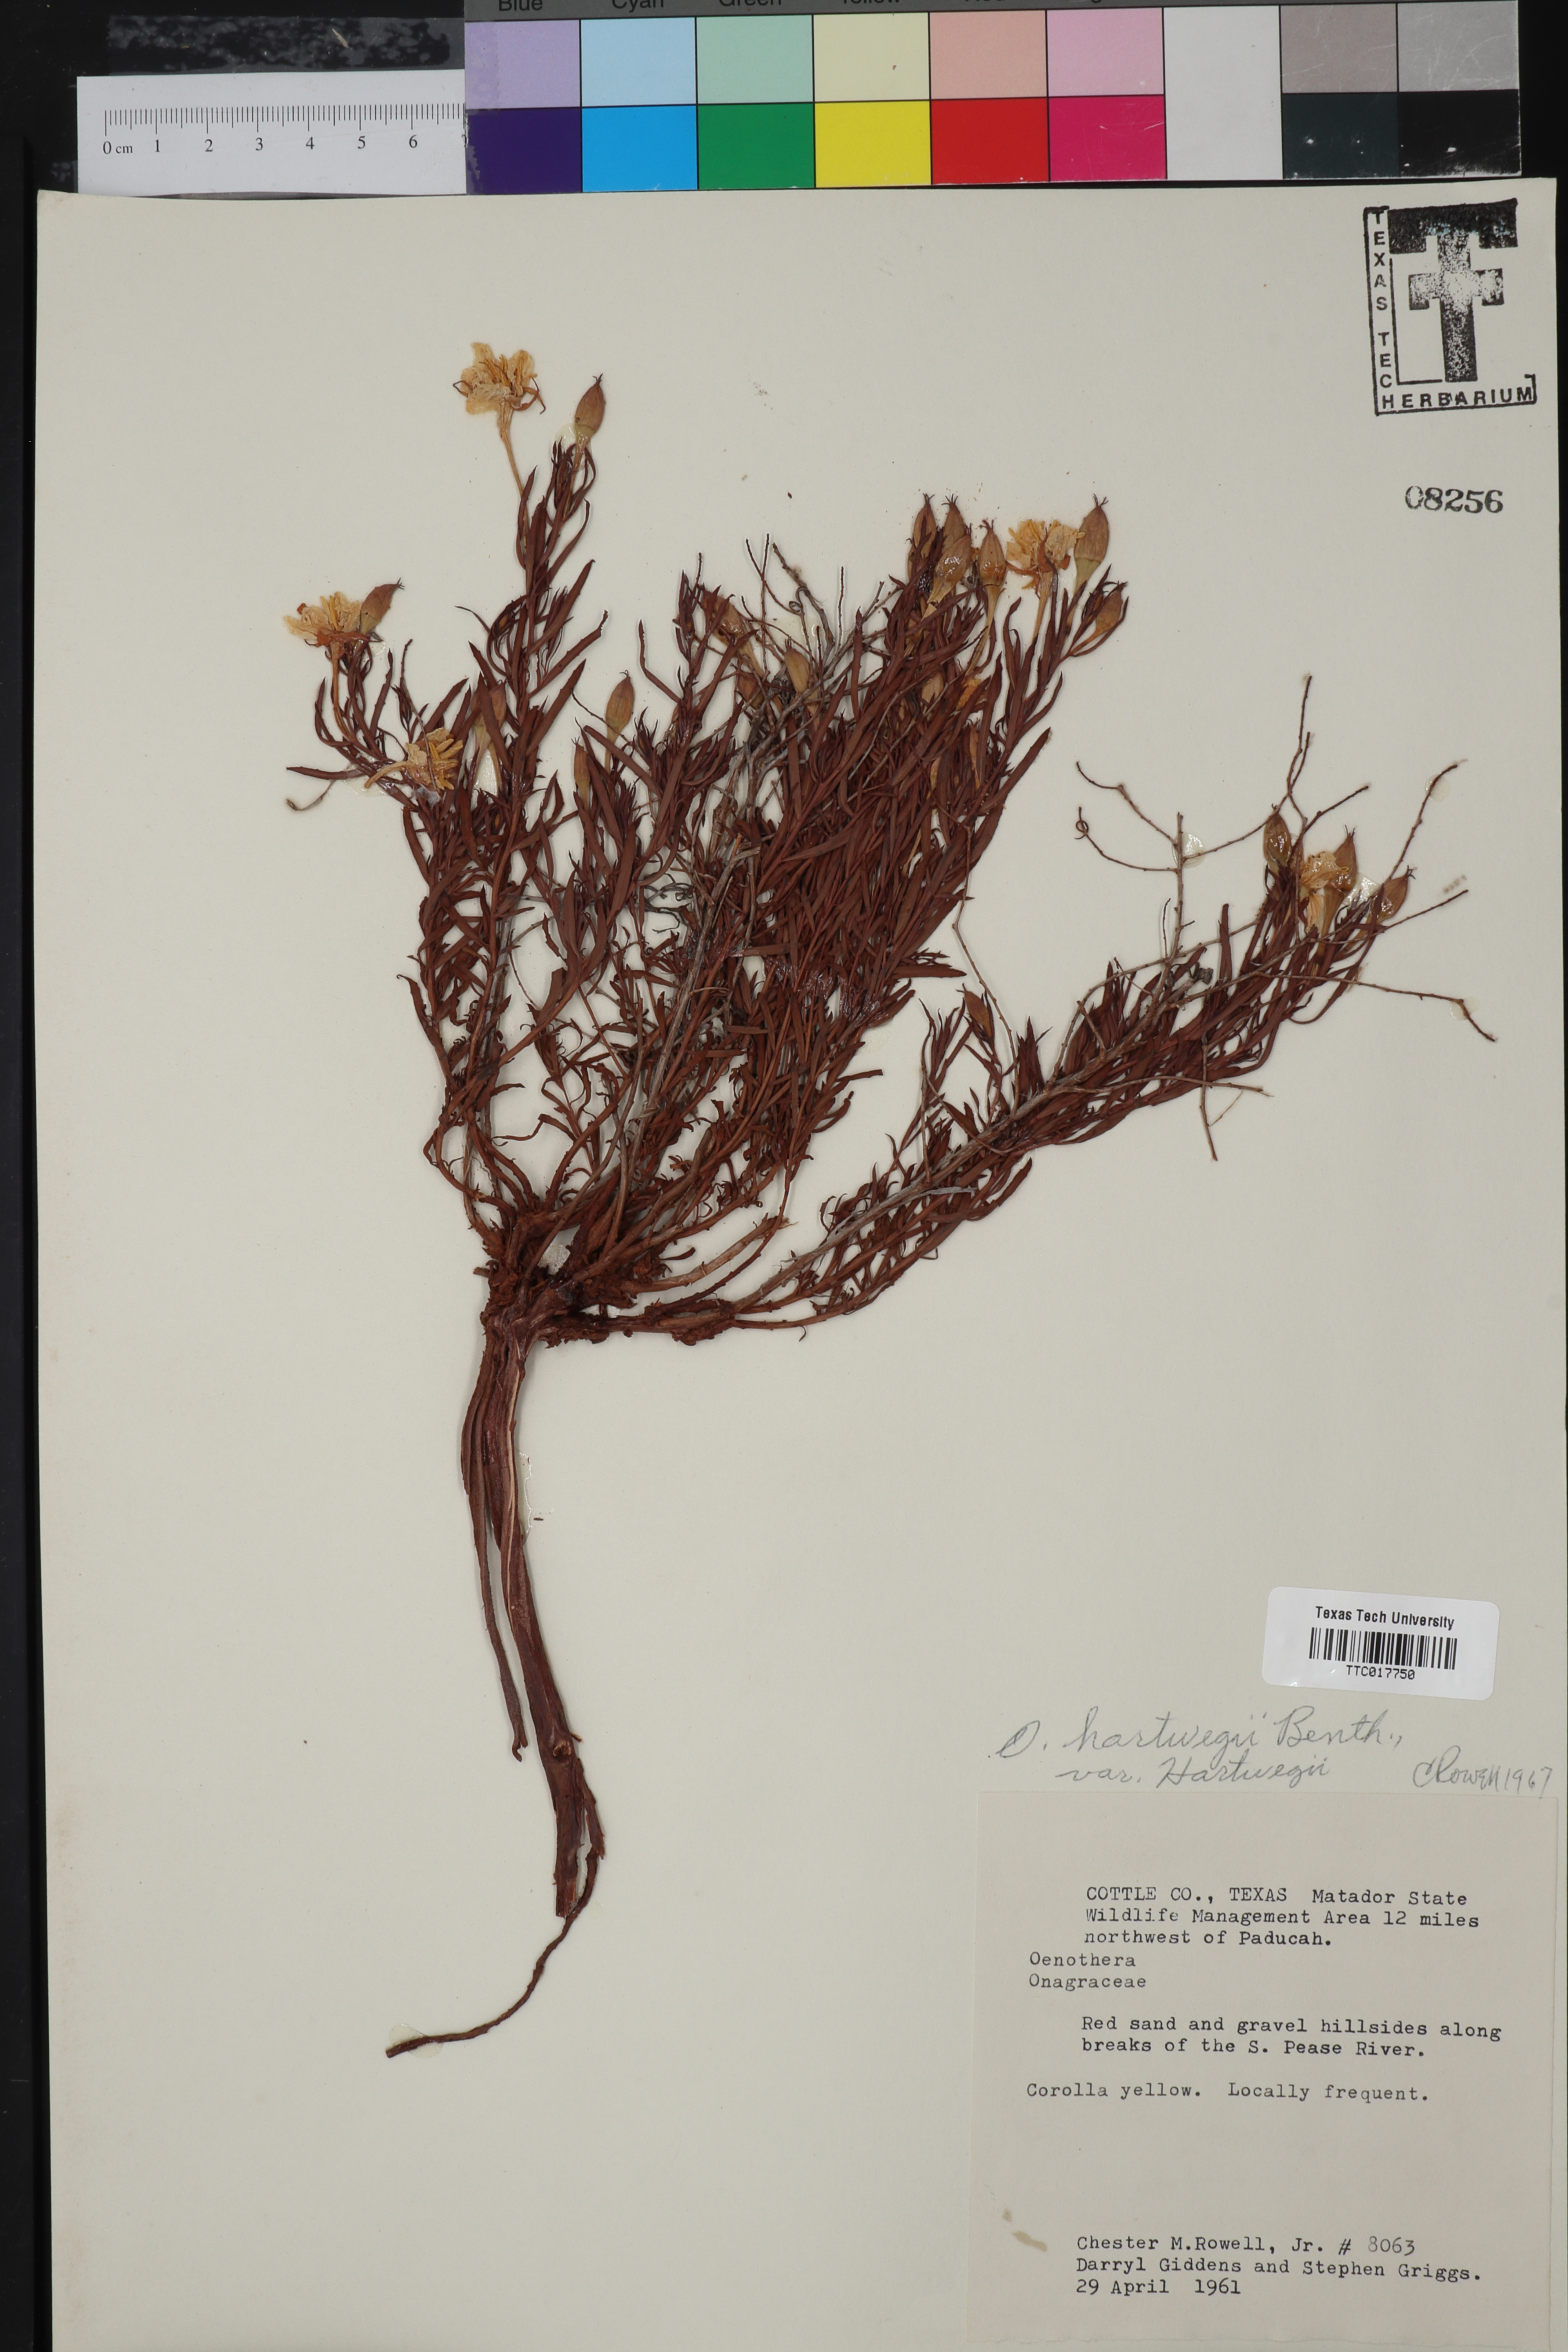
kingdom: Plantae
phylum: Tracheophyta
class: Magnoliopsida
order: Myrtales
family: Onagraceae
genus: Oenothera
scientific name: Oenothera hartwegii
